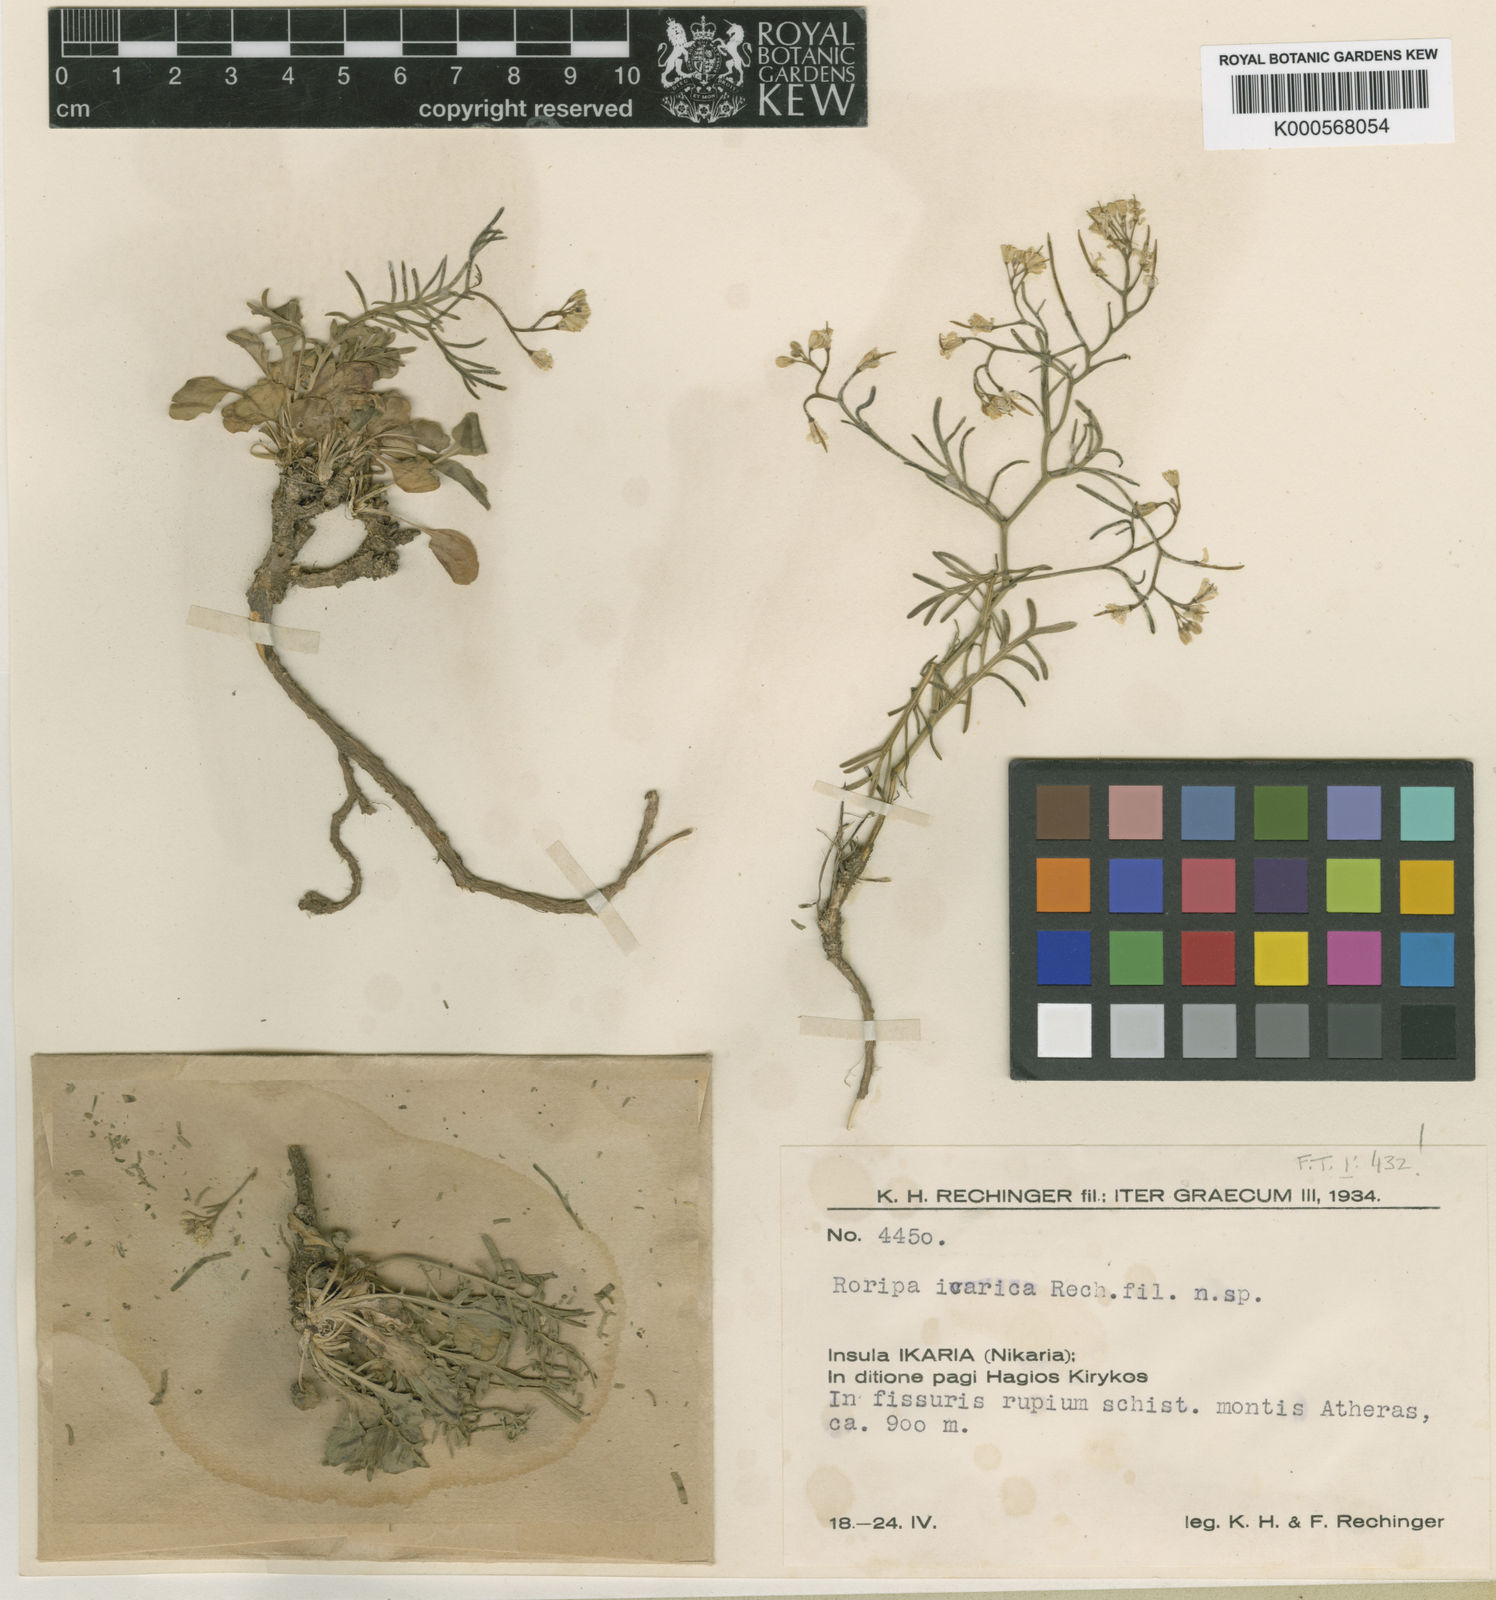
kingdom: Plantae
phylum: Tracheophyta
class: Magnoliopsida
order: Brassicales
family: Brassicaceae
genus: Rorippa
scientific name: Rorippa icarica
